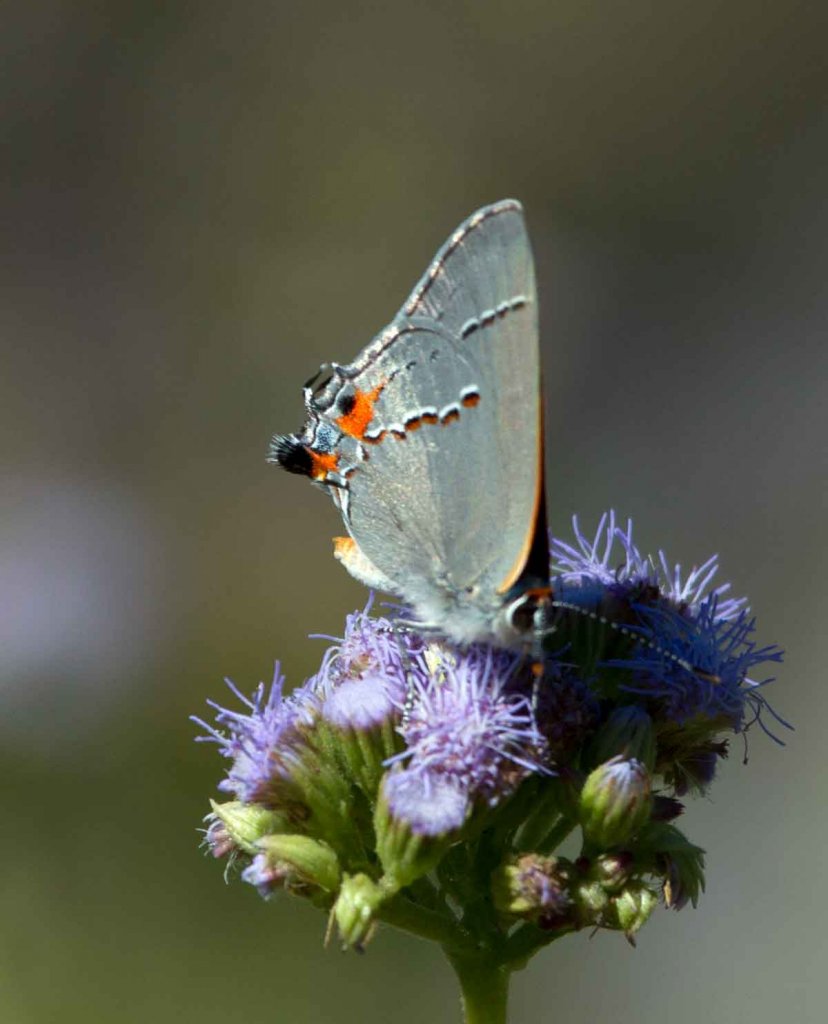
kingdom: Animalia
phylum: Arthropoda
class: Insecta
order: Lepidoptera
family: Lycaenidae
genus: Strymon
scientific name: Strymon melinus
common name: Gray Hairstreak
